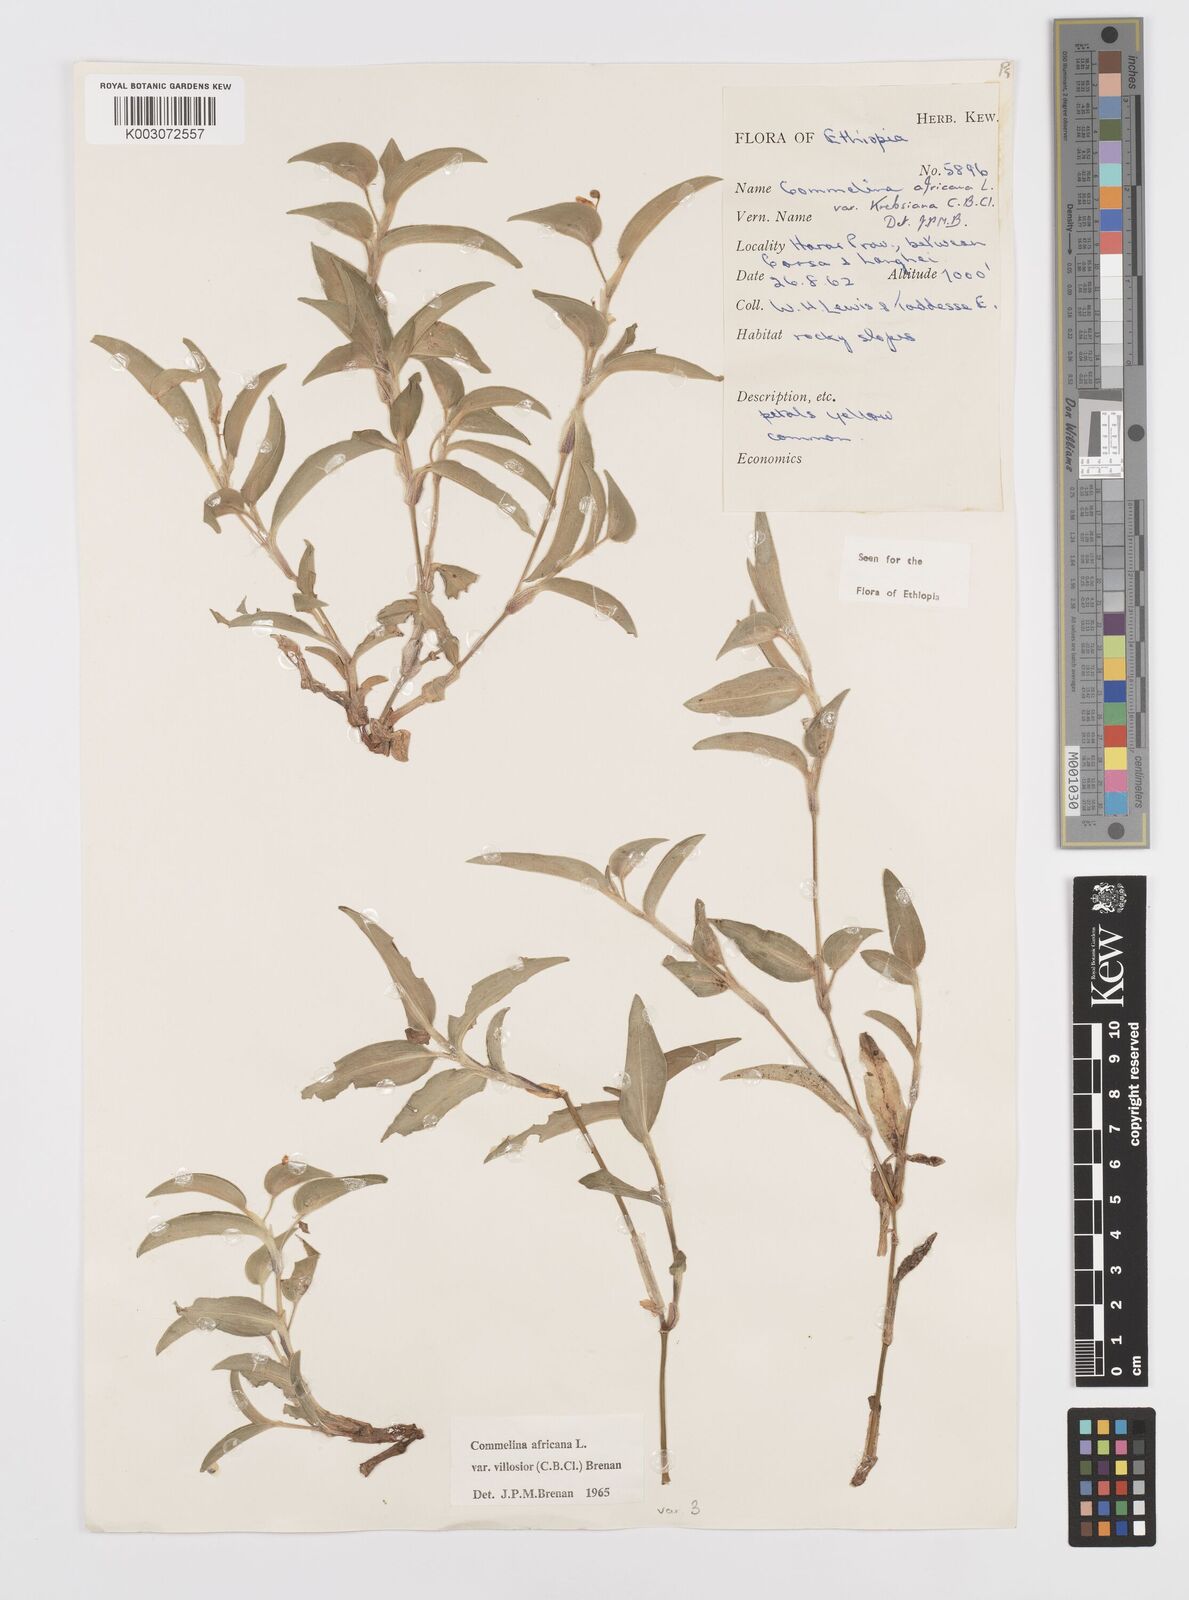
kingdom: Plantae
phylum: Tracheophyta
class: Liliopsida
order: Commelinales
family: Commelinaceae
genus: Commelina
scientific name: Commelina africana
